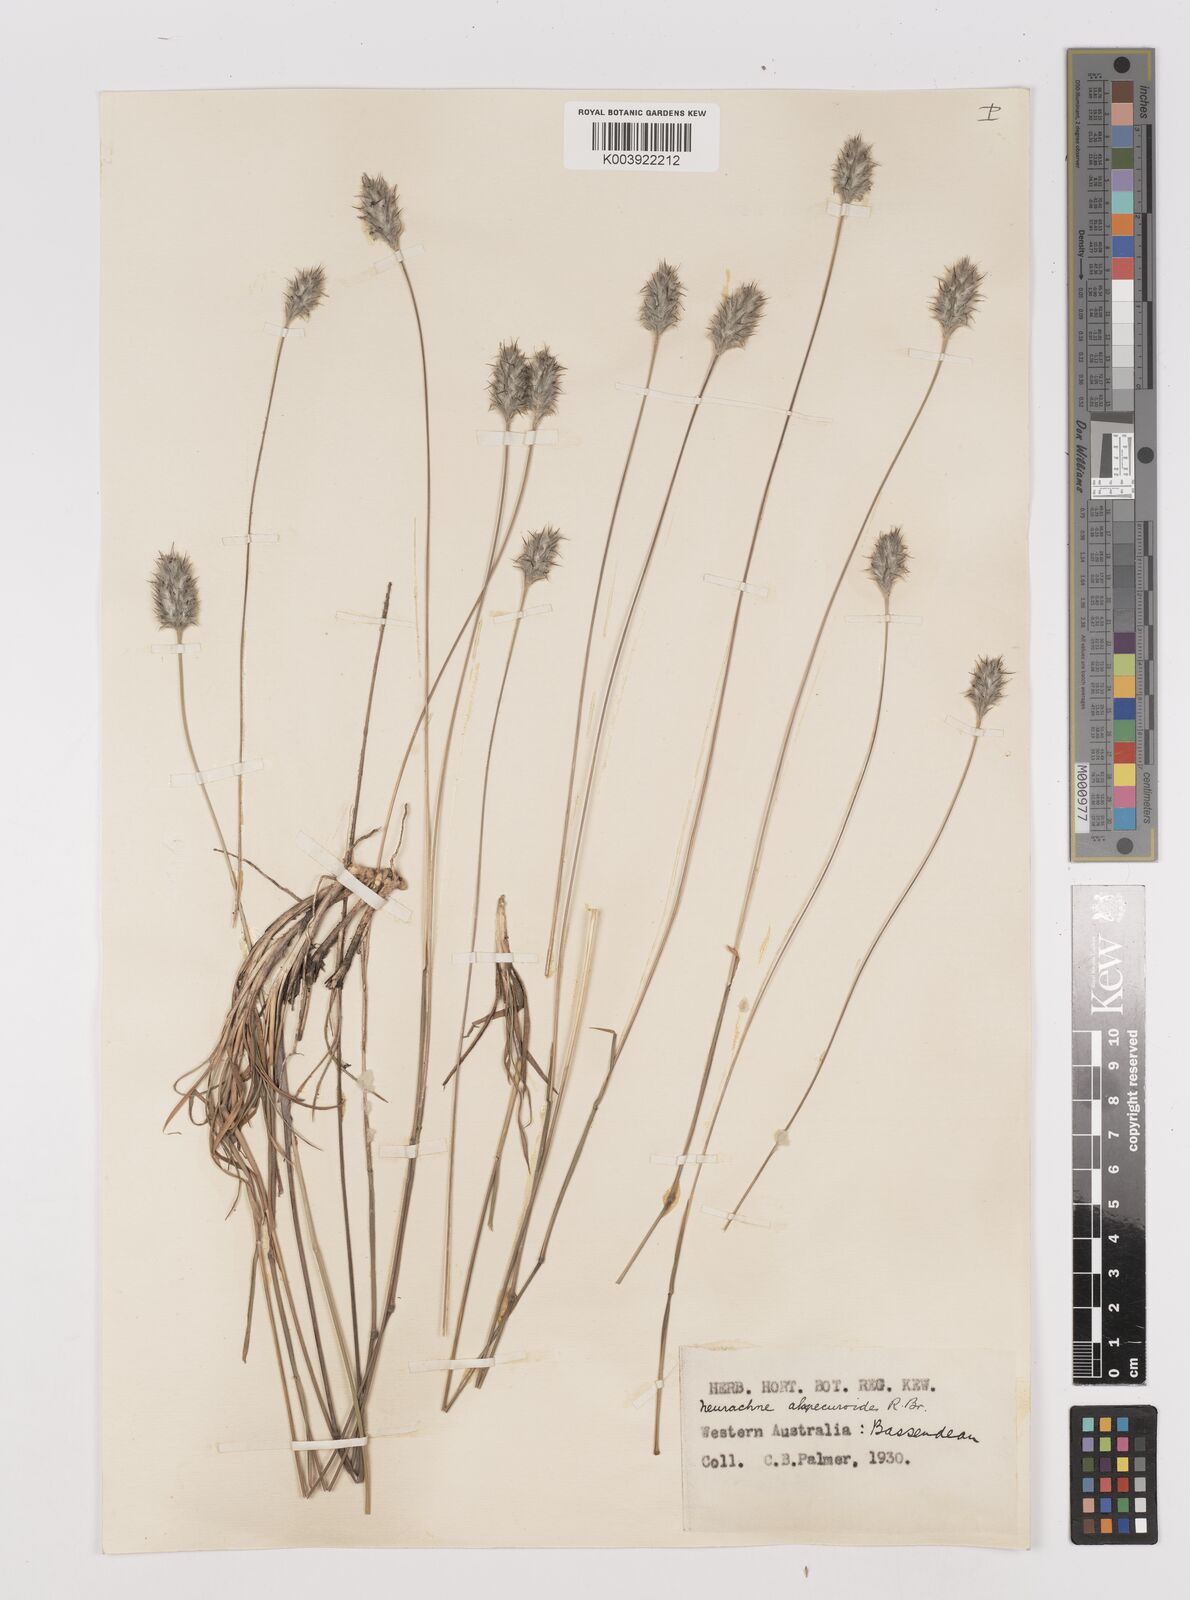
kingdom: Plantae
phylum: Tracheophyta
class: Liliopsida
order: Poales
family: Poaceae
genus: Neurachne
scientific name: Neurachne alopecuroidea
